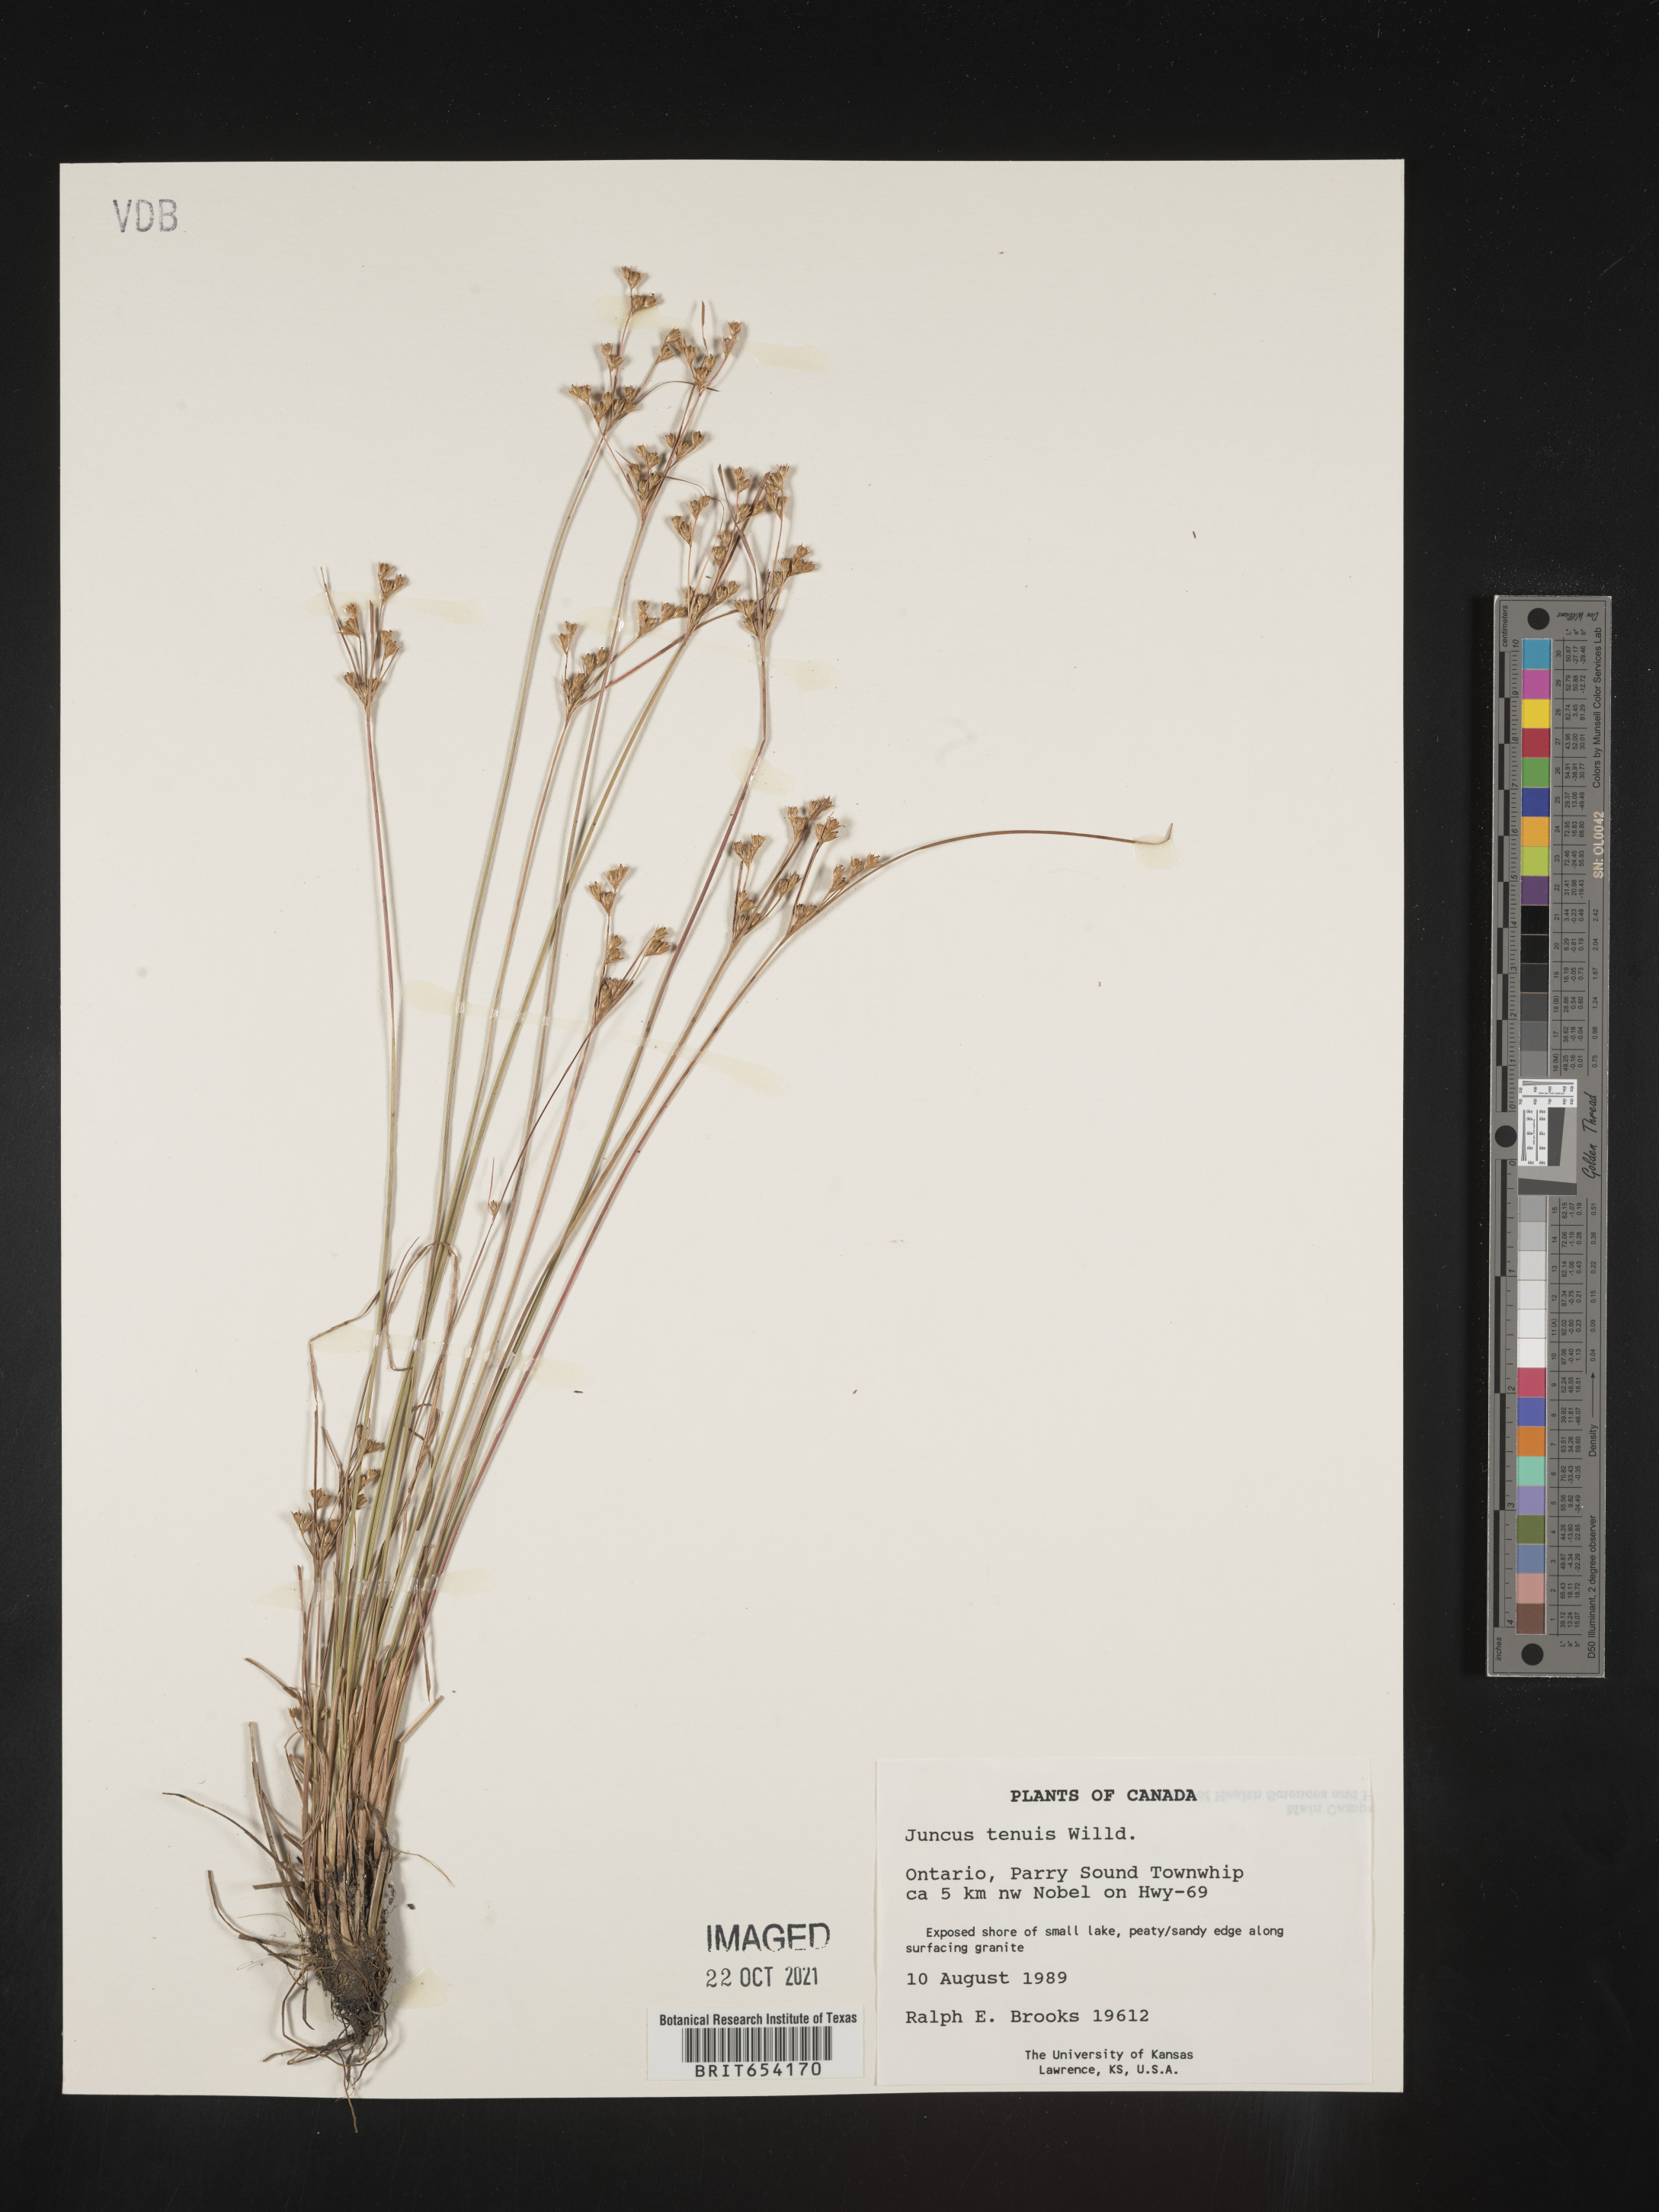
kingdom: Plantae
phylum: Tracheophyta
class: Liliopsida
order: Poales
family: Juncaceae
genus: Juncus
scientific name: Juncus
